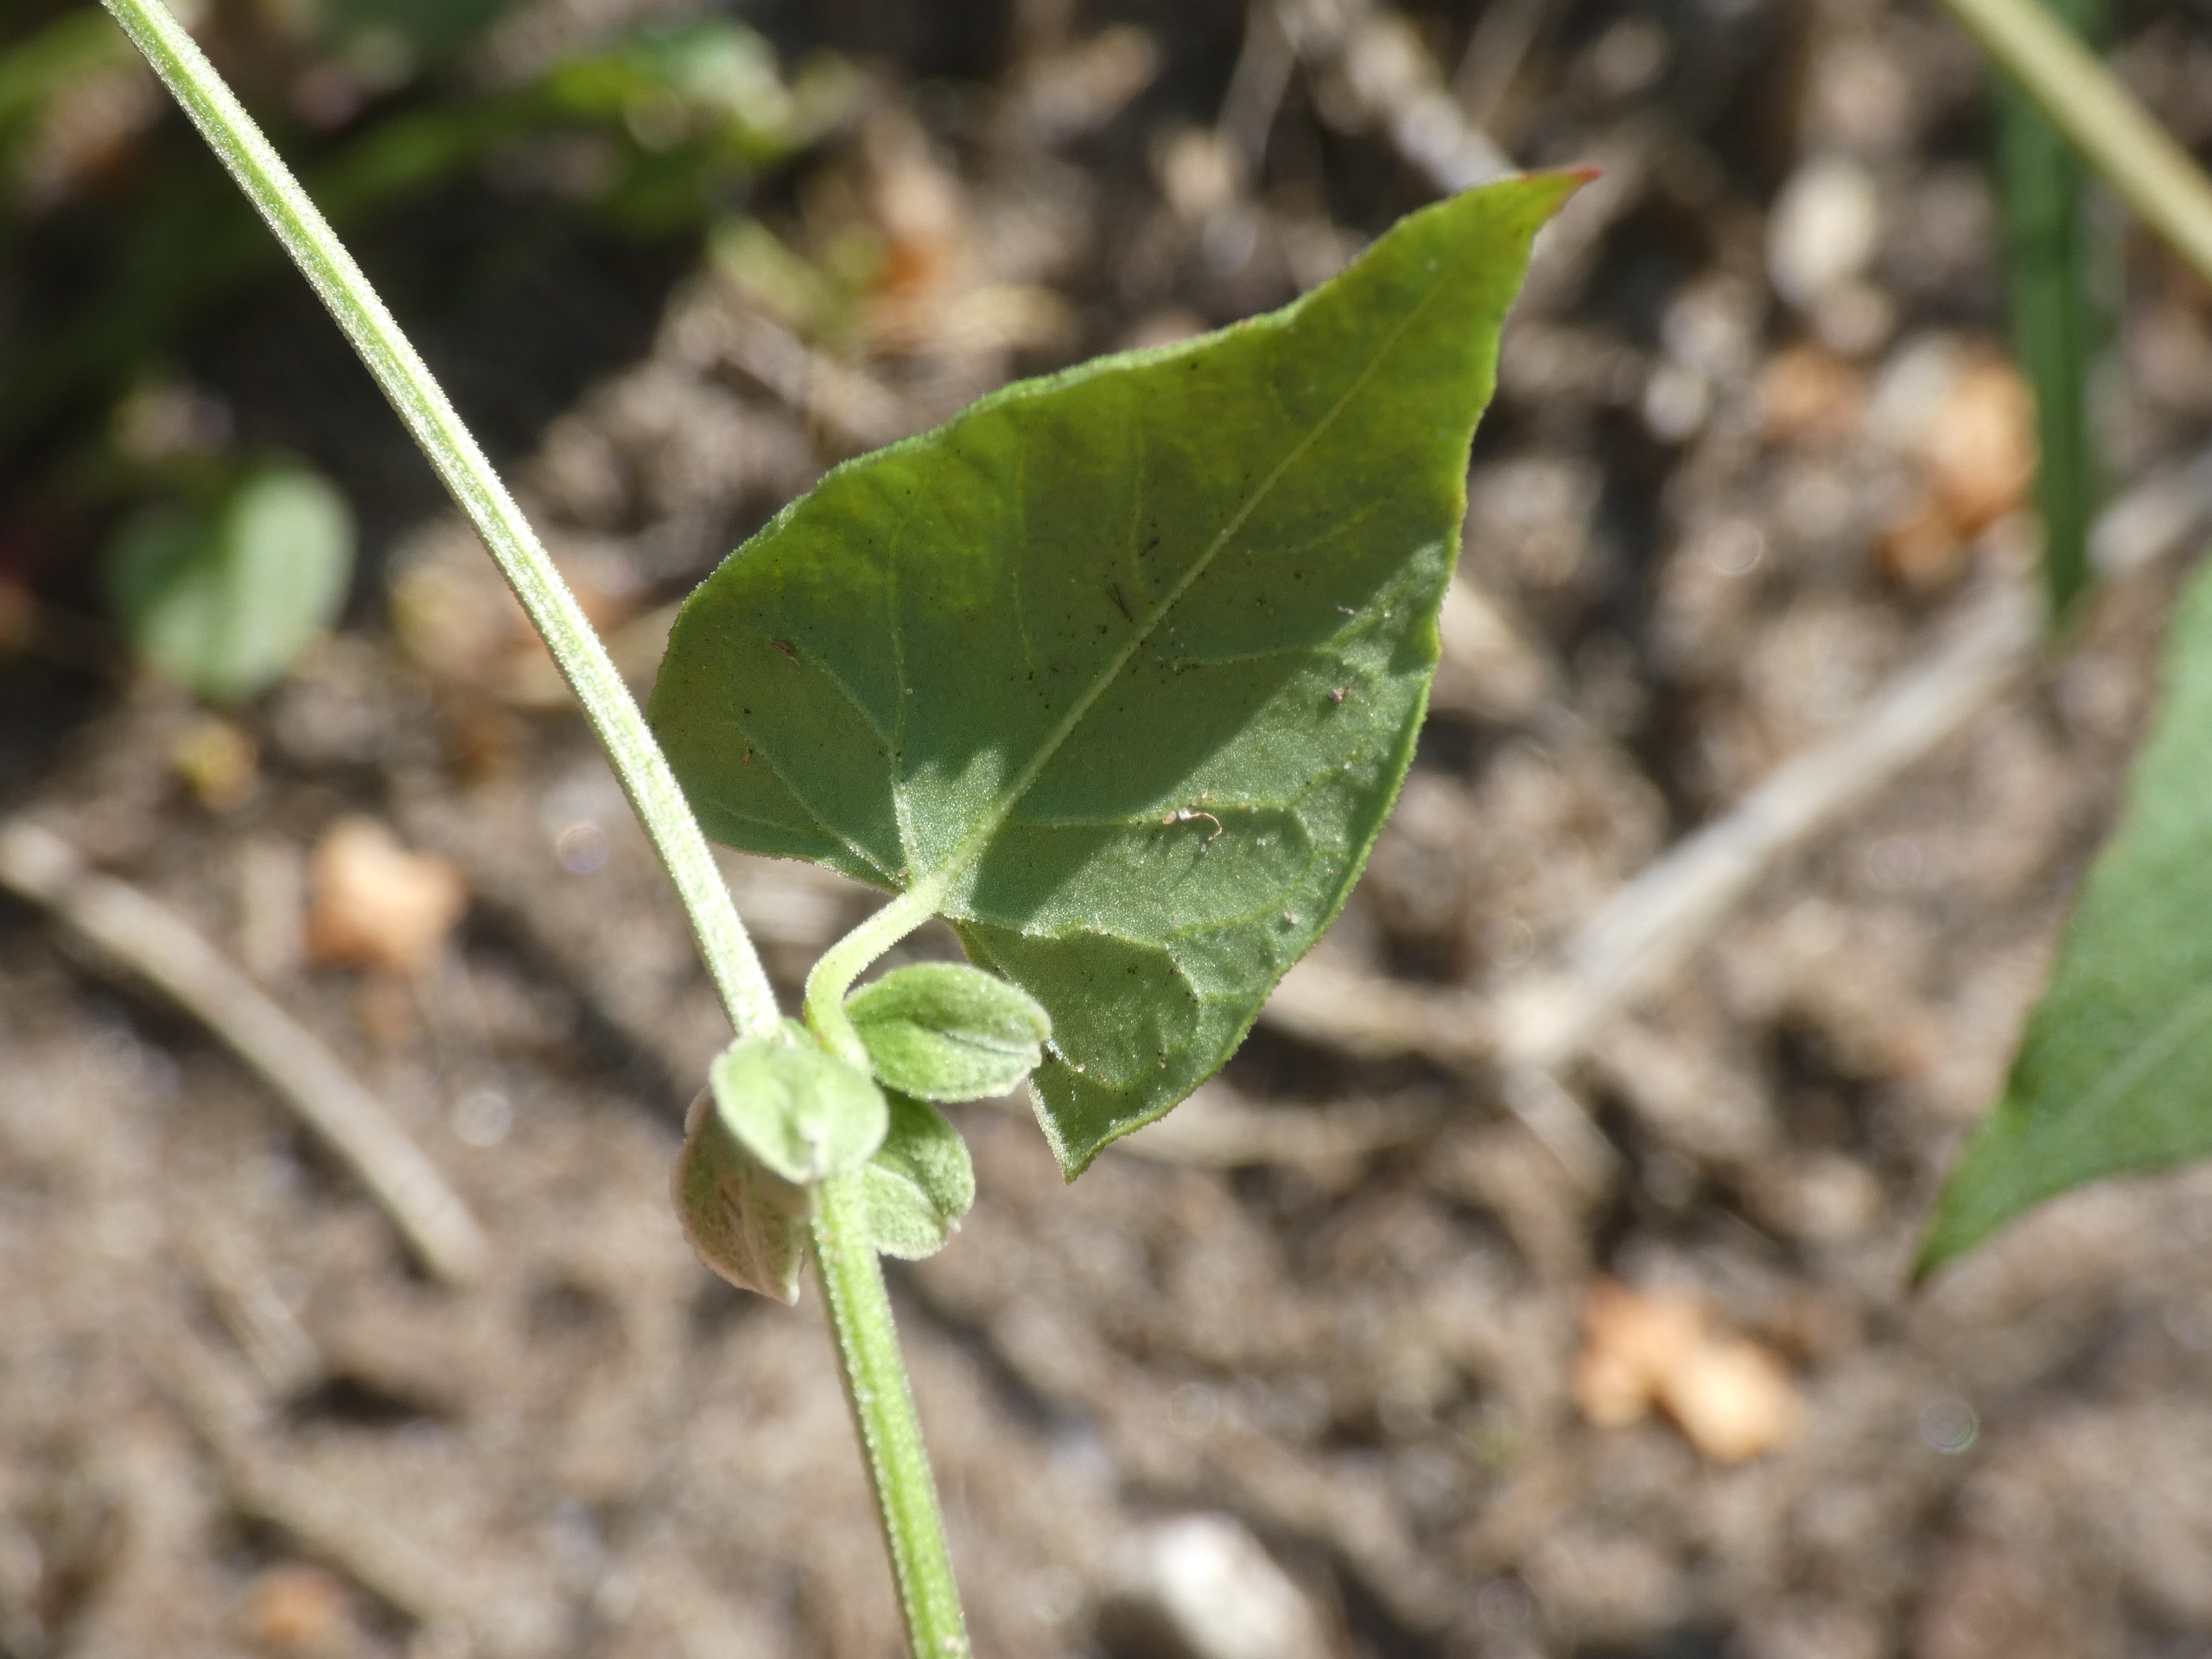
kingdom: Plantae
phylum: Tracheophyta
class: Magnoliopsida
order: Caryophyllales
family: Polygonaceae
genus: Fallopia
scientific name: Fallopia convolvulus
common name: Snerle-pileurt
